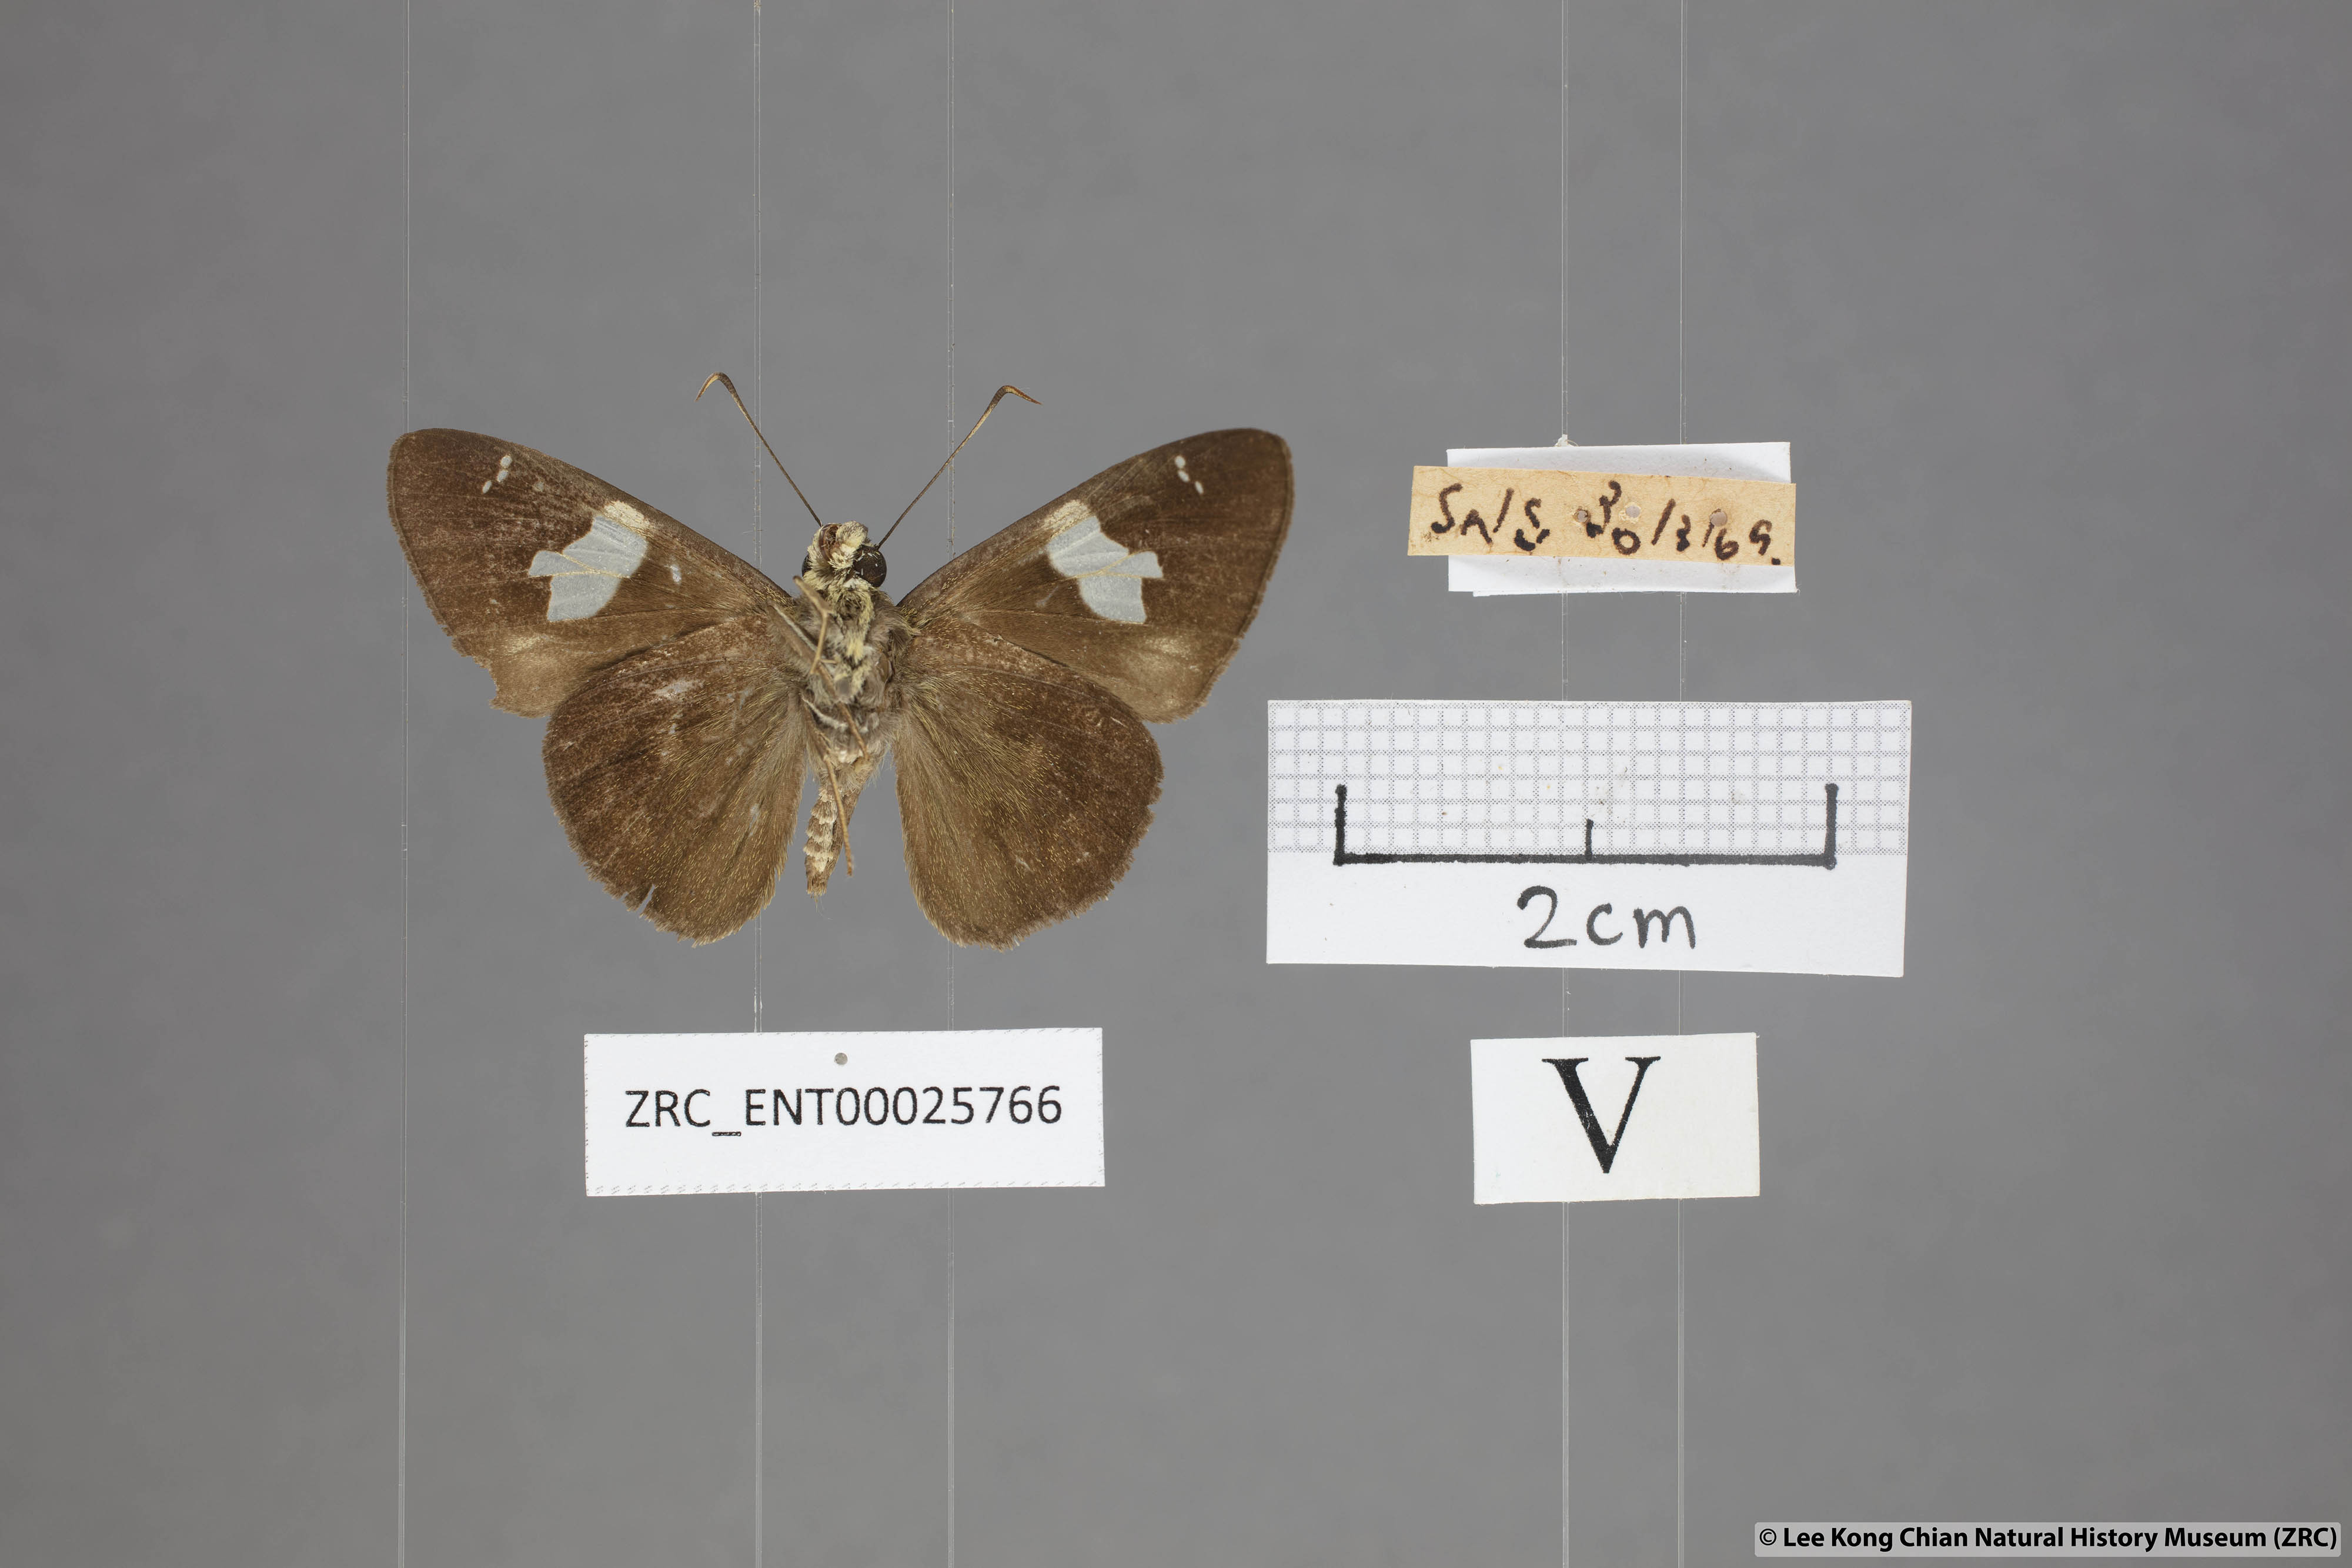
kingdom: Animalia
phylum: Arthropoda
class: Insecta
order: Lepidoptera
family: Hesperiidae
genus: Celaenorrhinus
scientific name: Celaenorrhinus asmara
